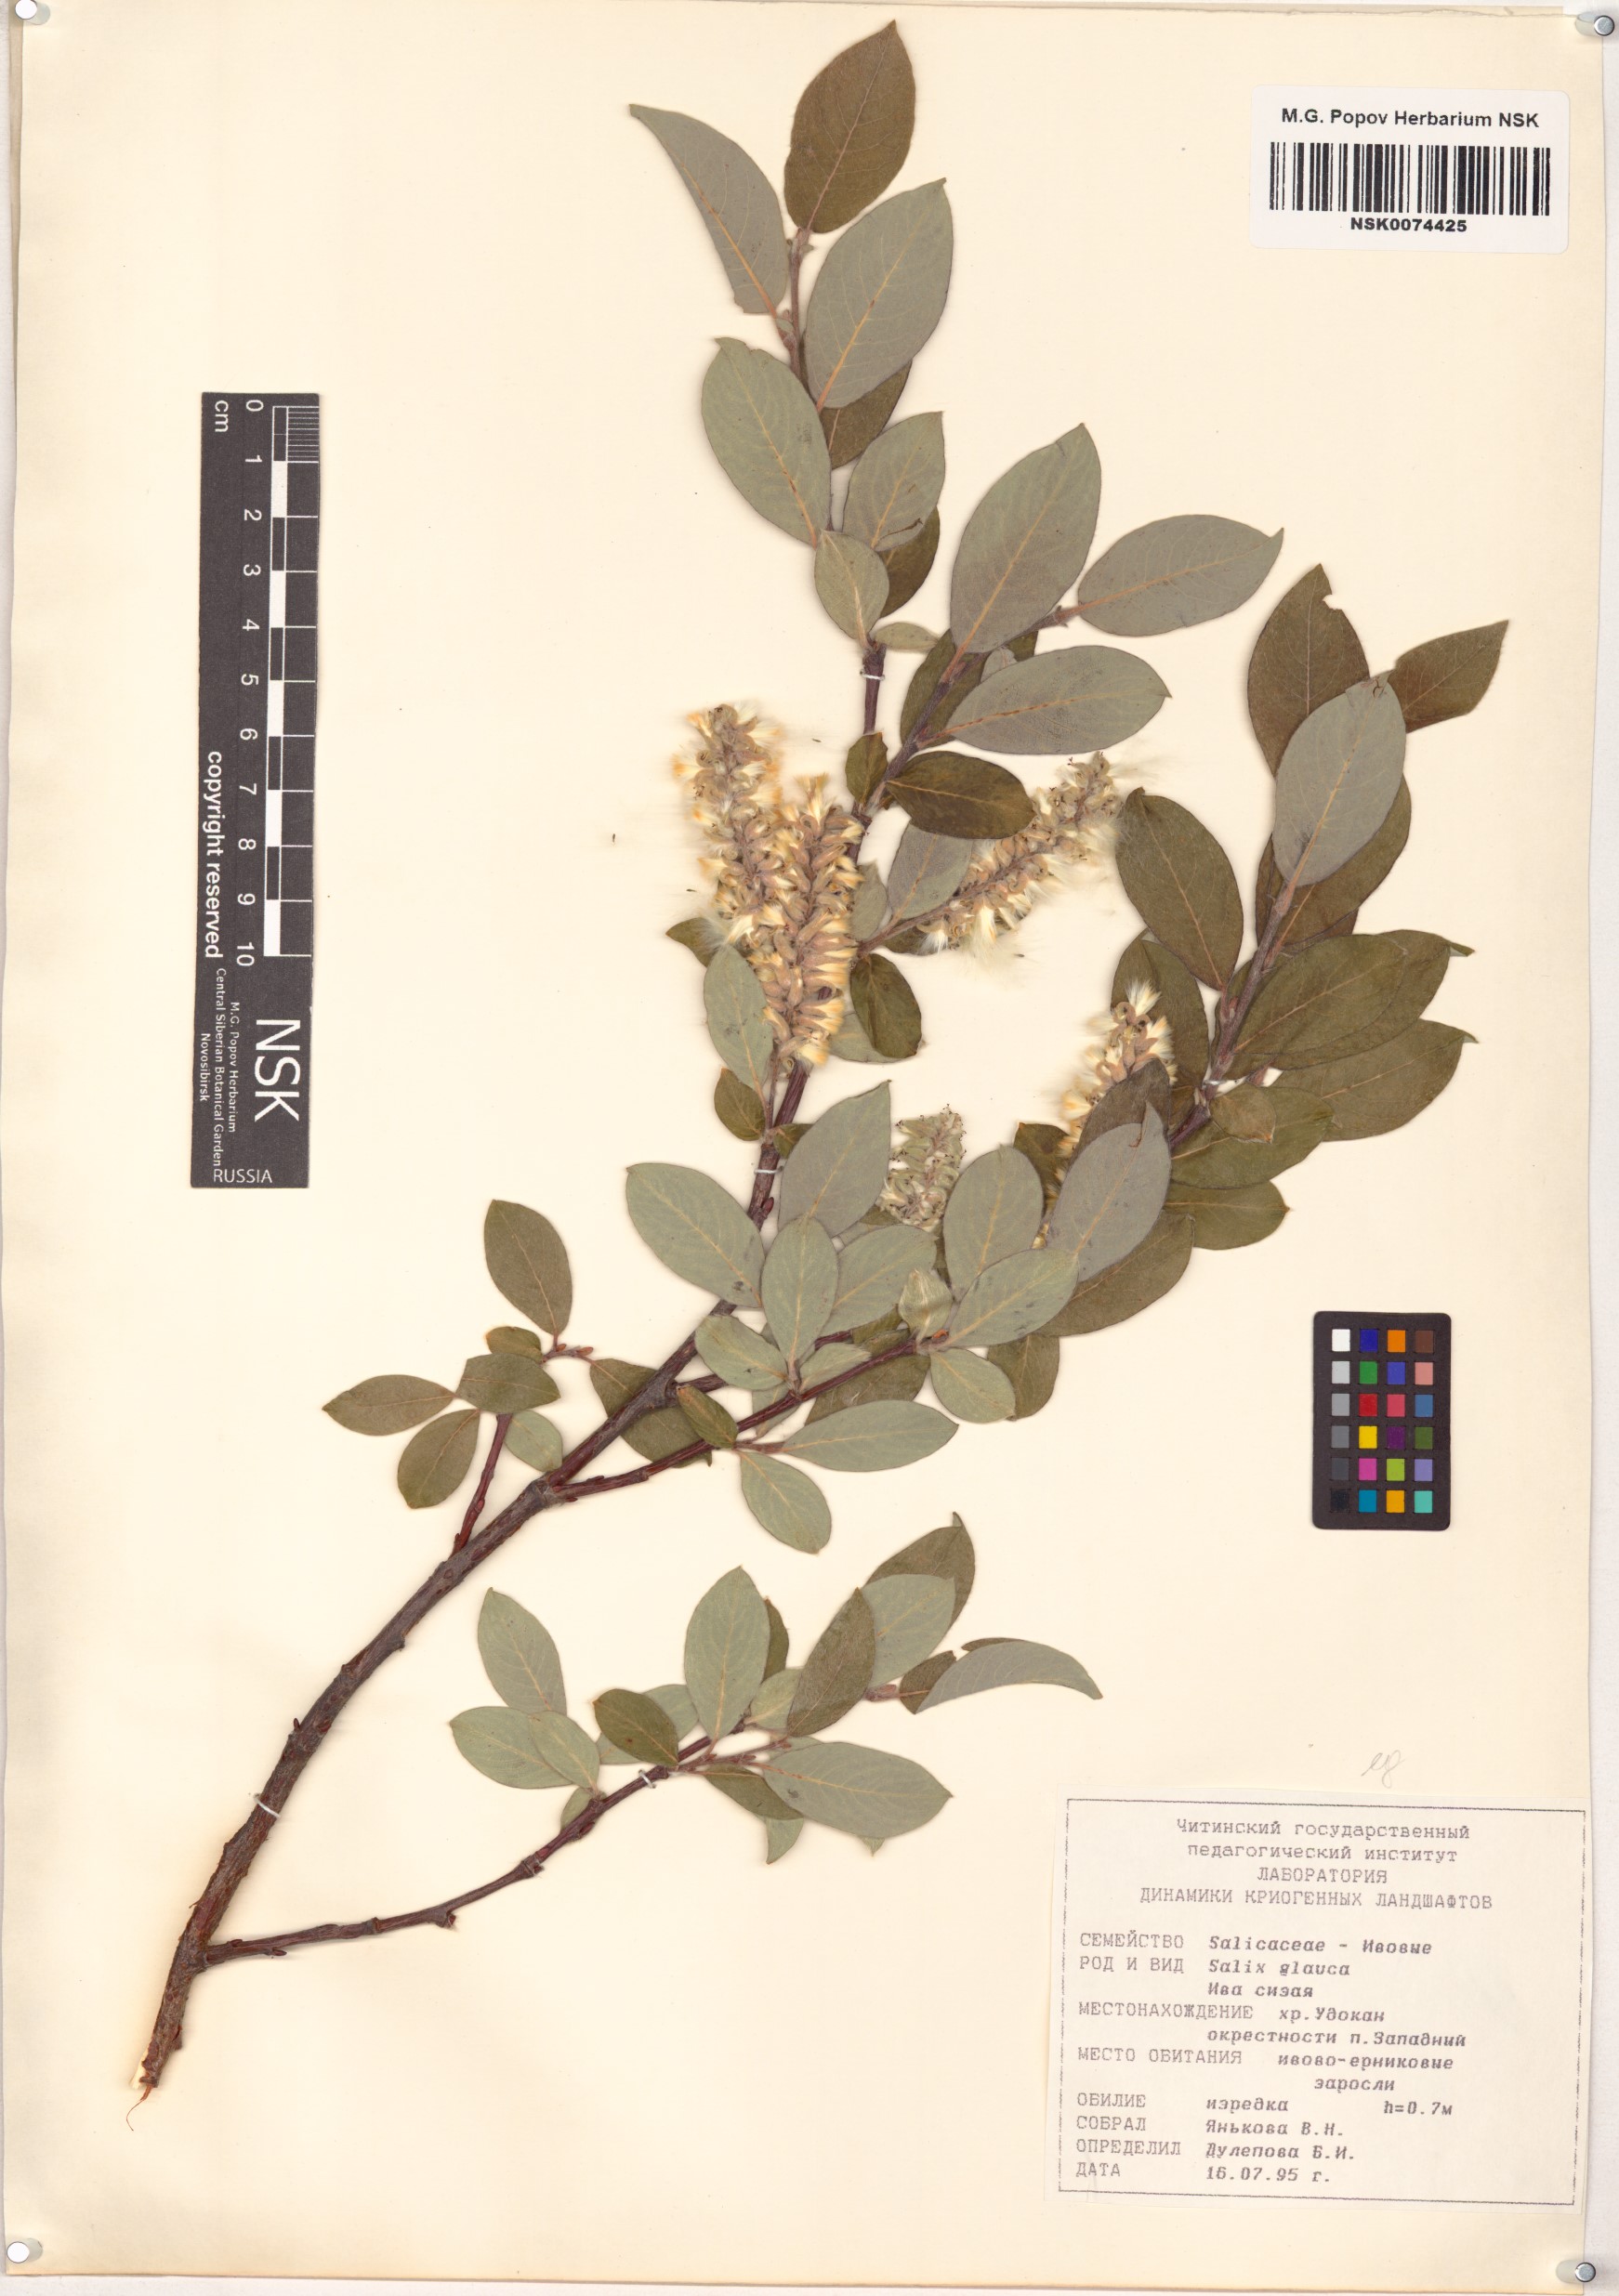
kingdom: Plantae
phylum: Tracheophyta
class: Magnoliopsida
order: Malpighiales
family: Salicaceae
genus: Salix
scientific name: Salix glauca
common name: Glaucous willow
